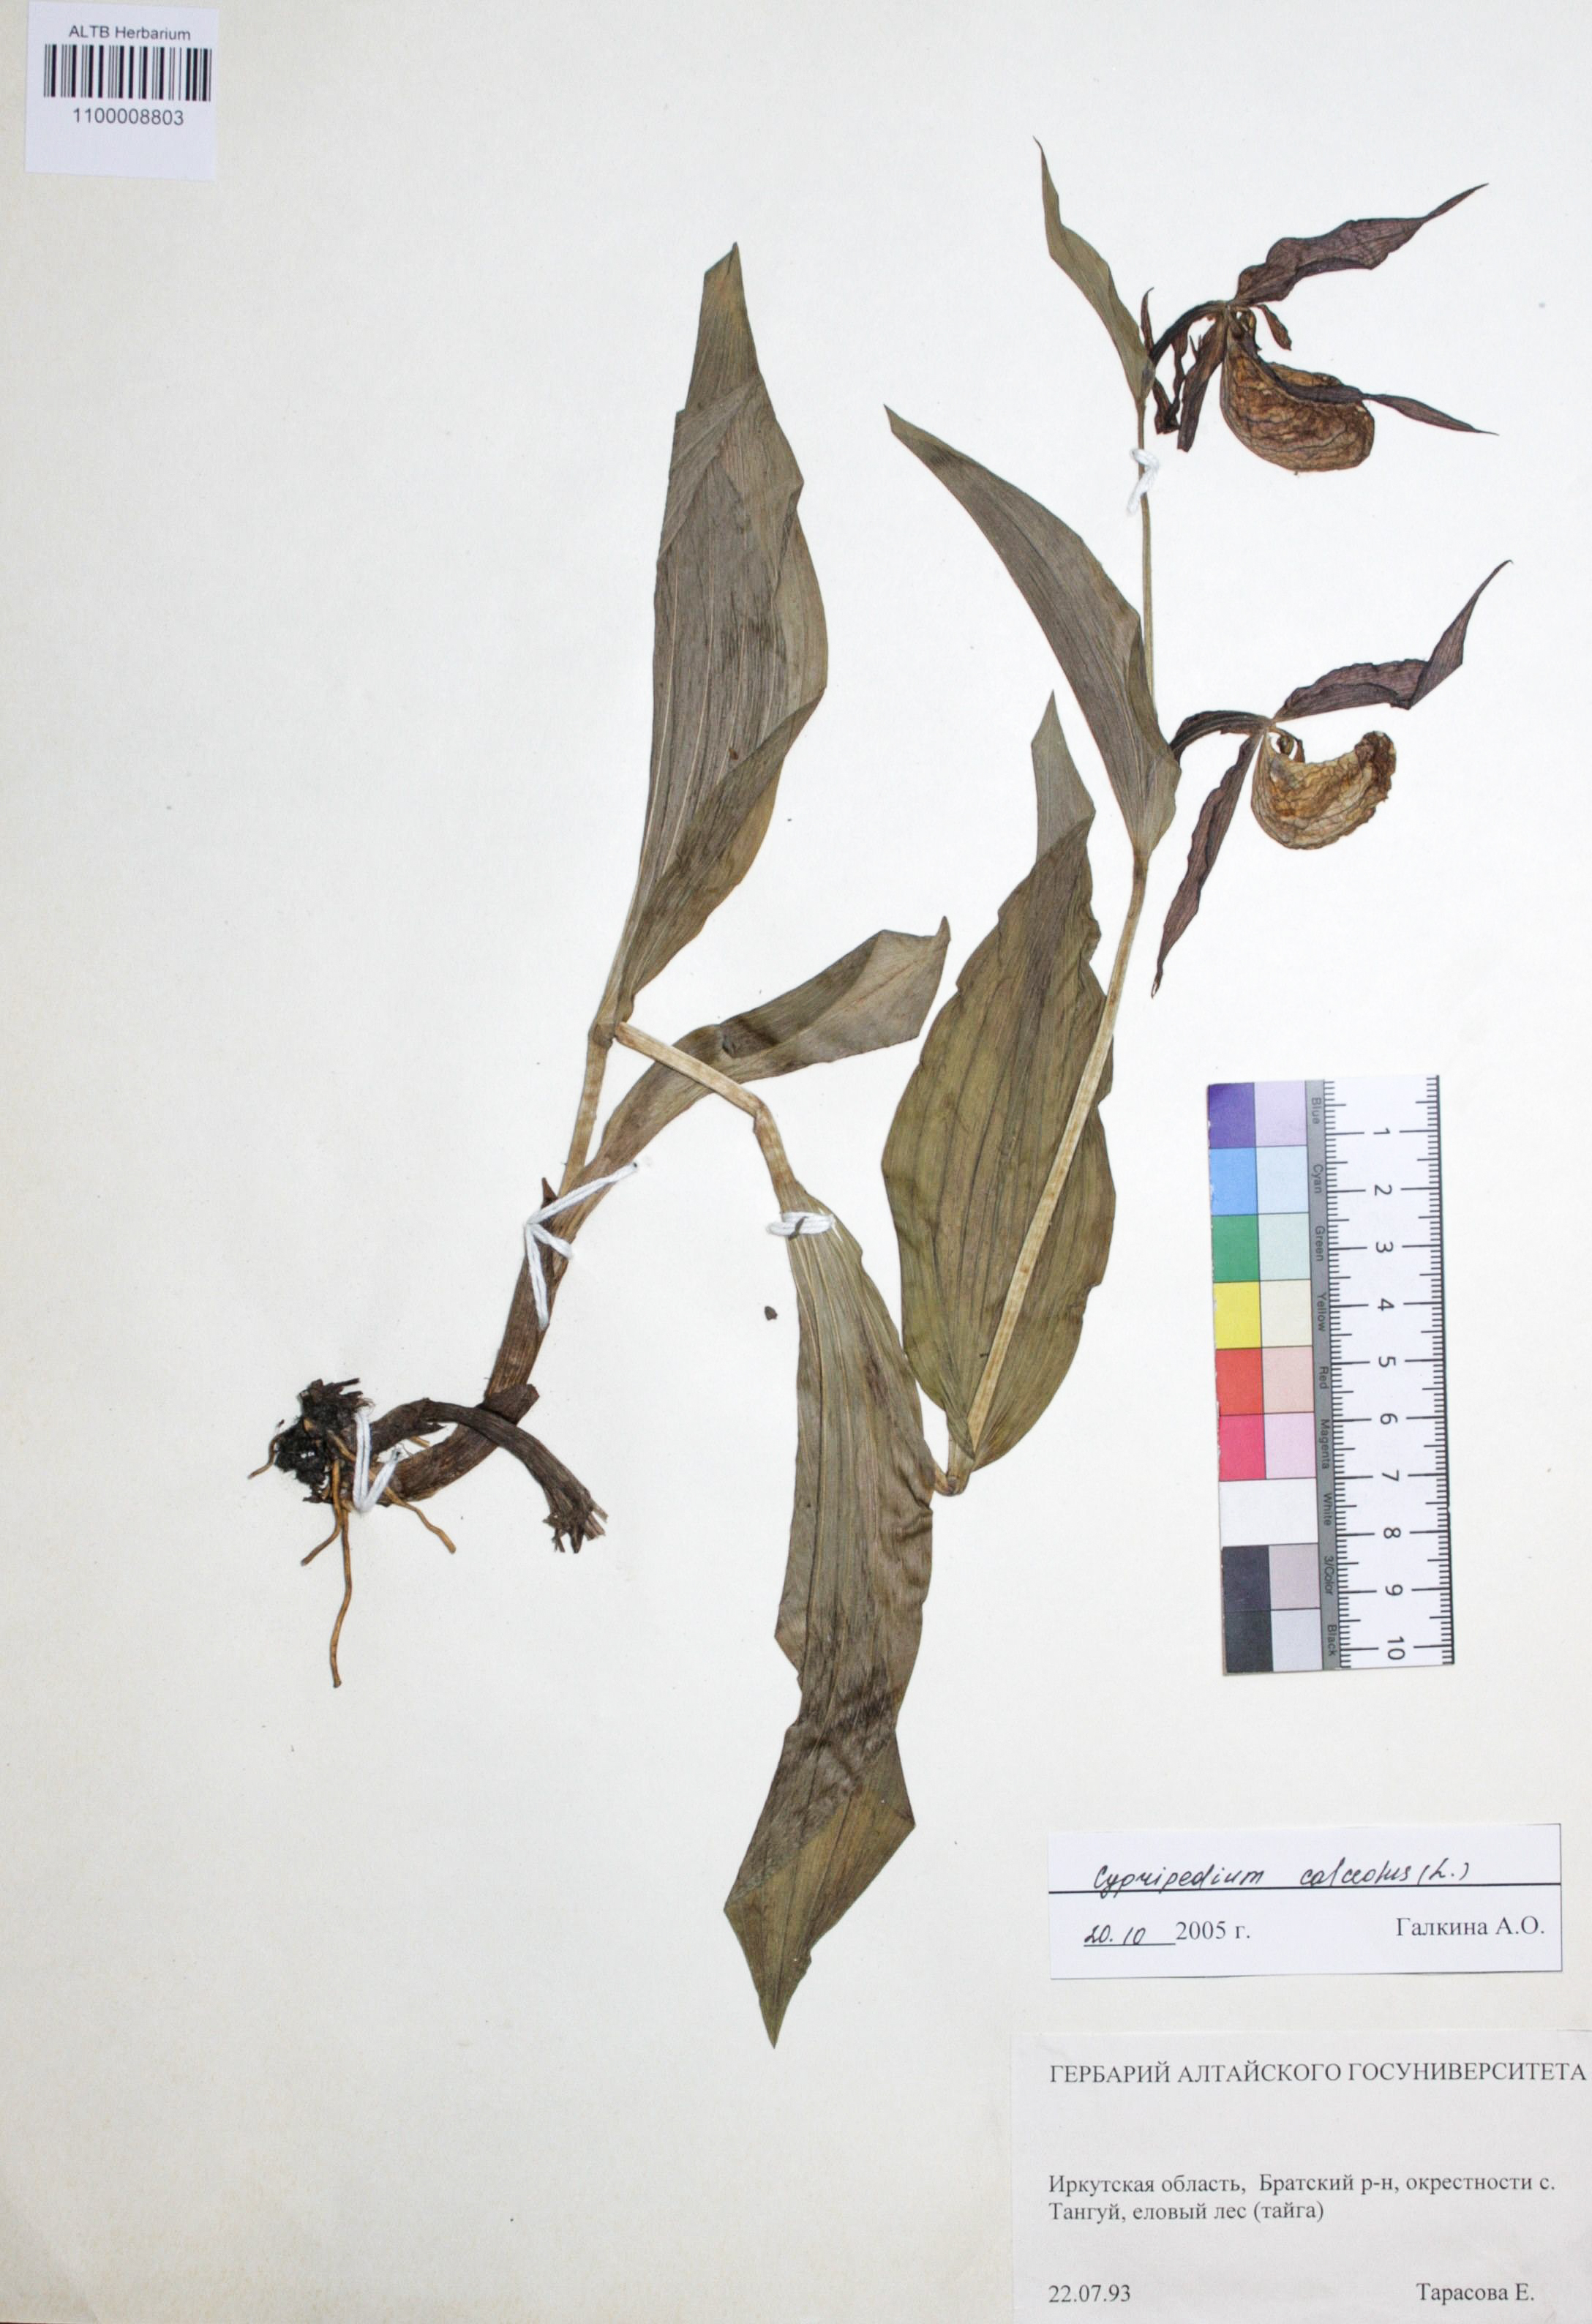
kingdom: Plantae
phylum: Tracheophyta
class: Liliopsida
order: Asparagales
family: Orchidaceae
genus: Cypripedium
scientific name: Cypripedium calceolus
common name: Lady's-slipper
